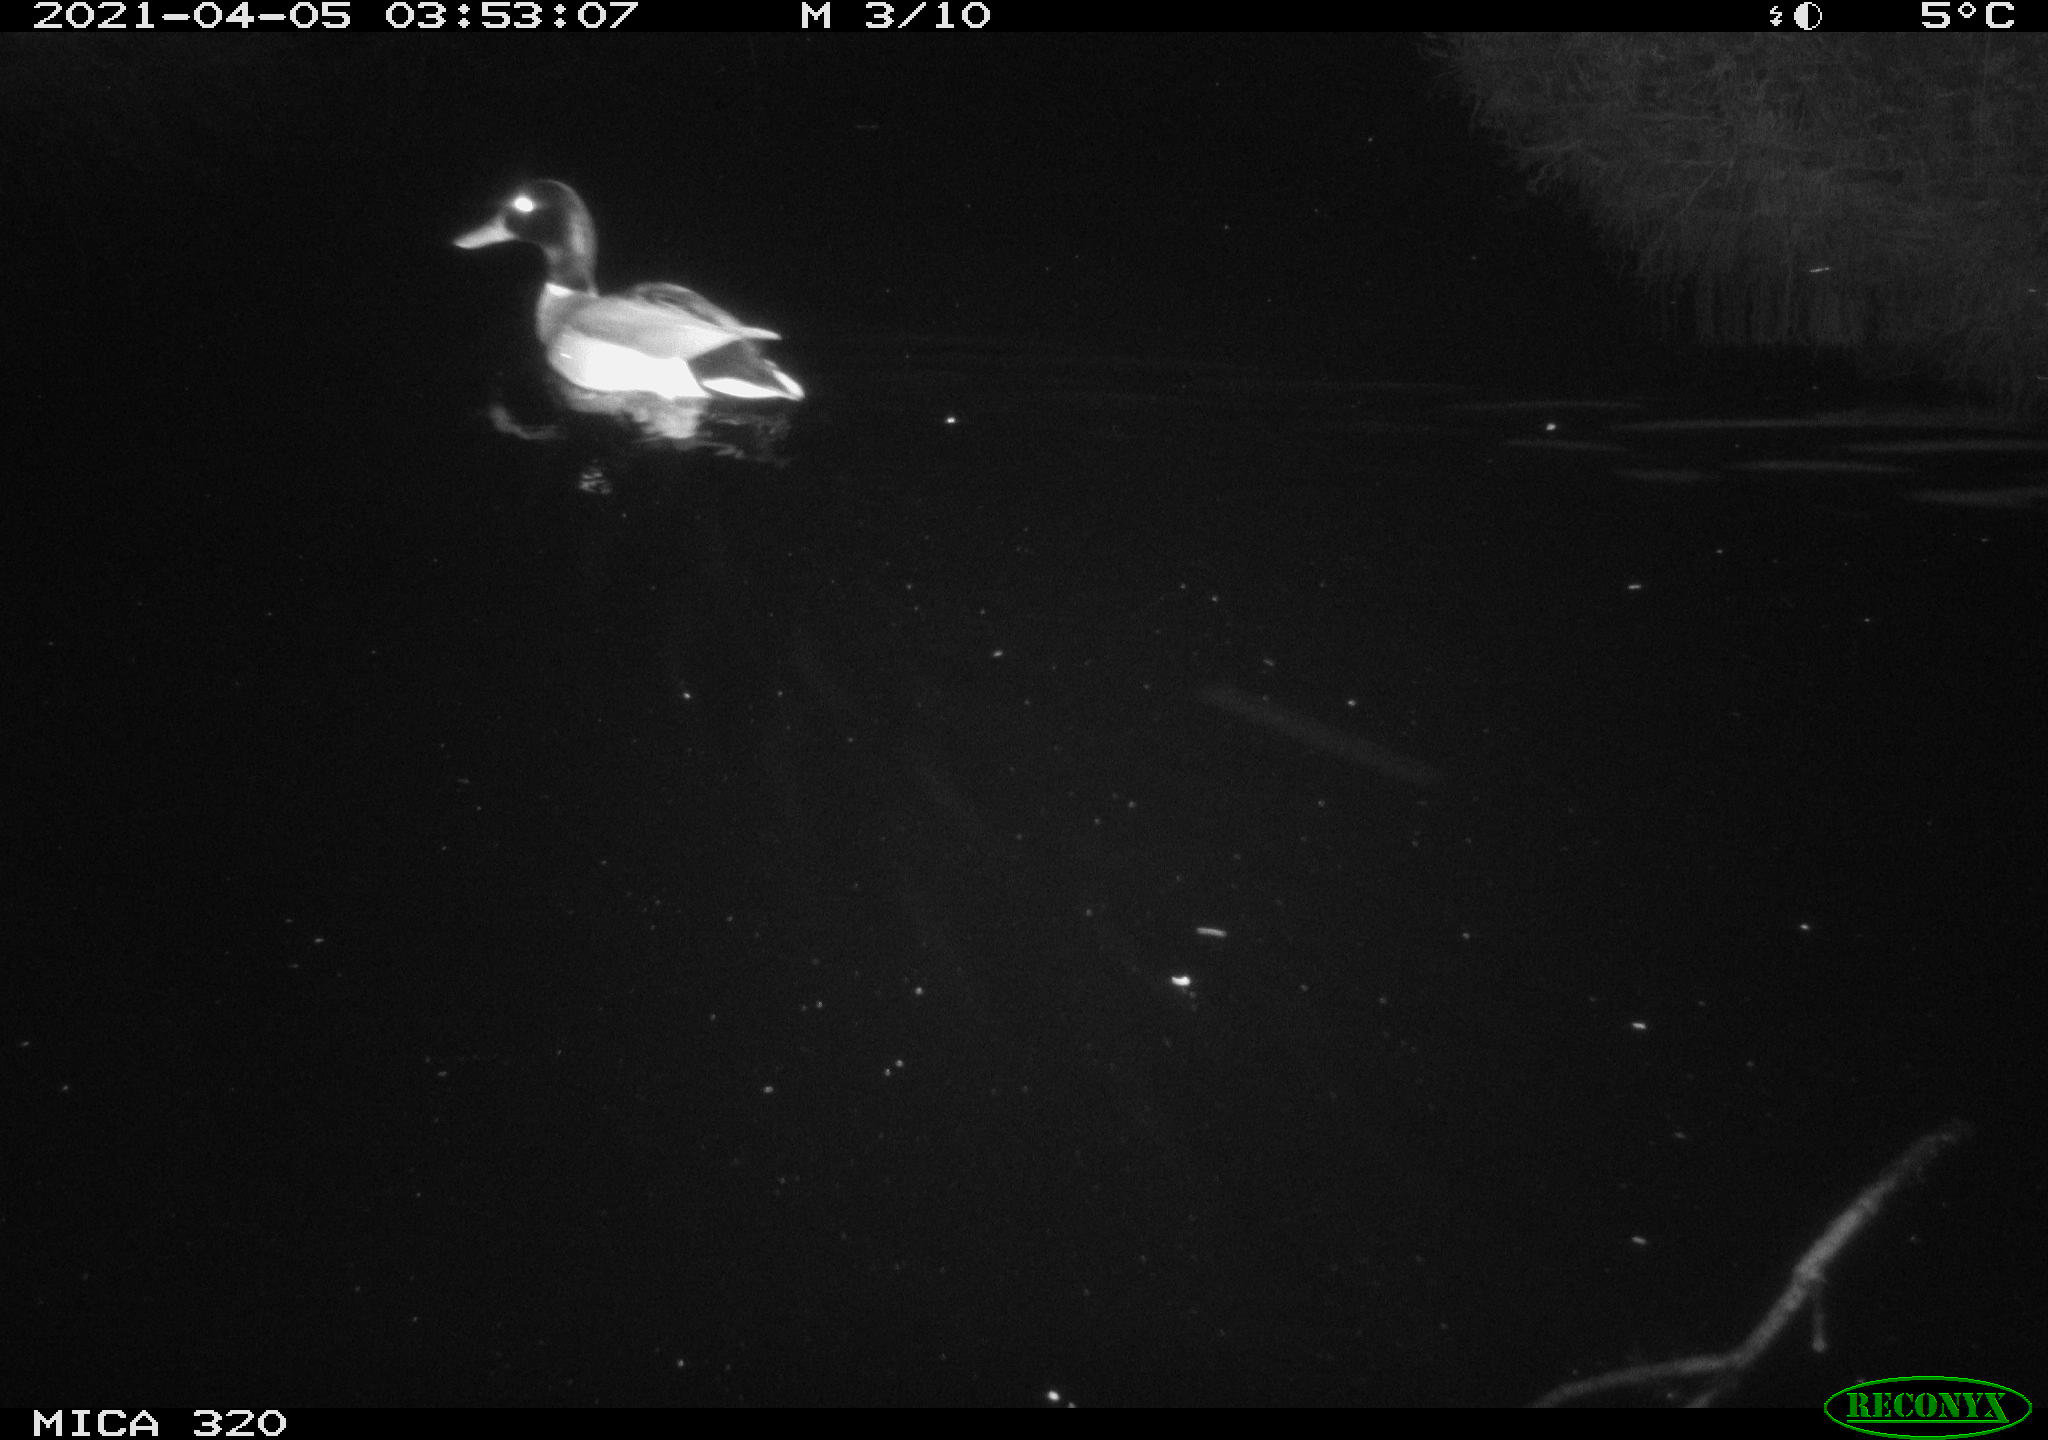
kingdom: Animalia
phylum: Chordata
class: Aves
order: Anseriformes
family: Anatidae
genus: Anas
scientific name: Anas platyrhynchos
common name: Mallard
